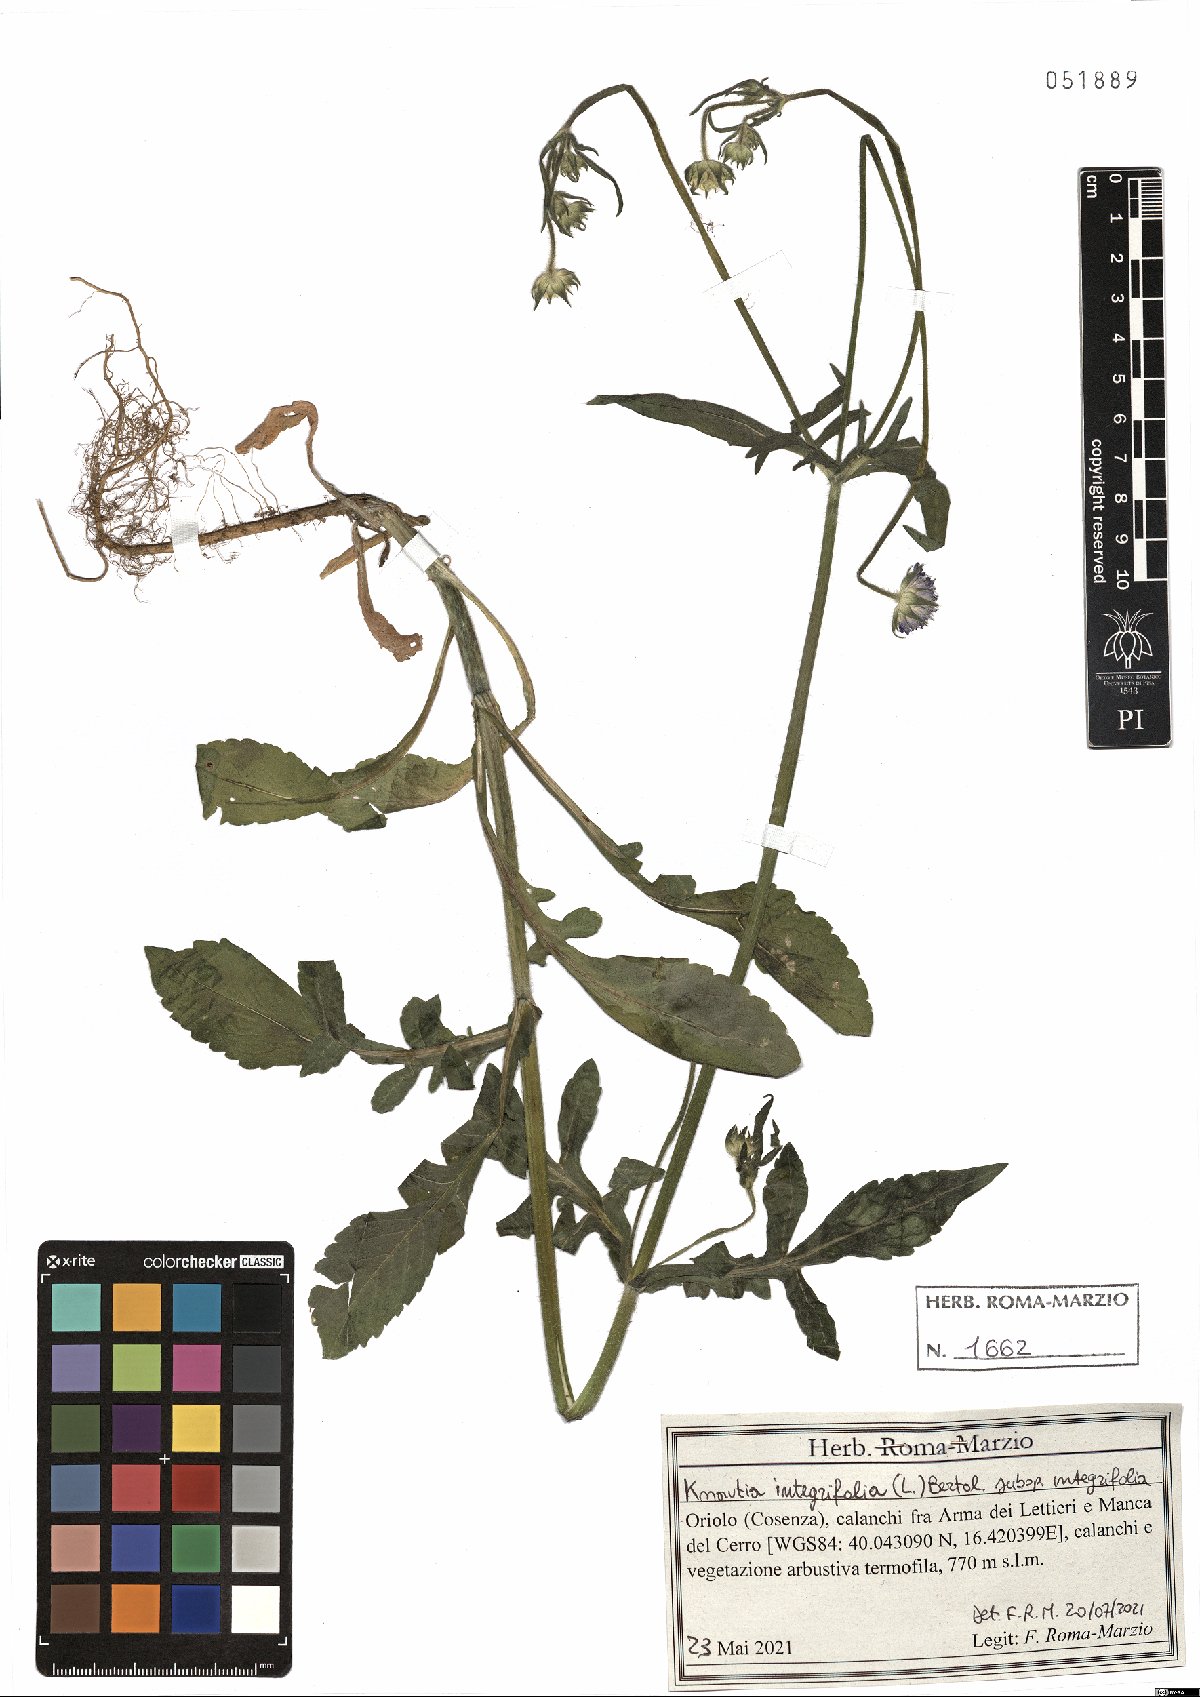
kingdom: Plantae
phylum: Tracheophyta
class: Magnoliopsida
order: Dipsacales
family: Caprifoliaceae
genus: Knautia
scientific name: Knautia integrifolia
